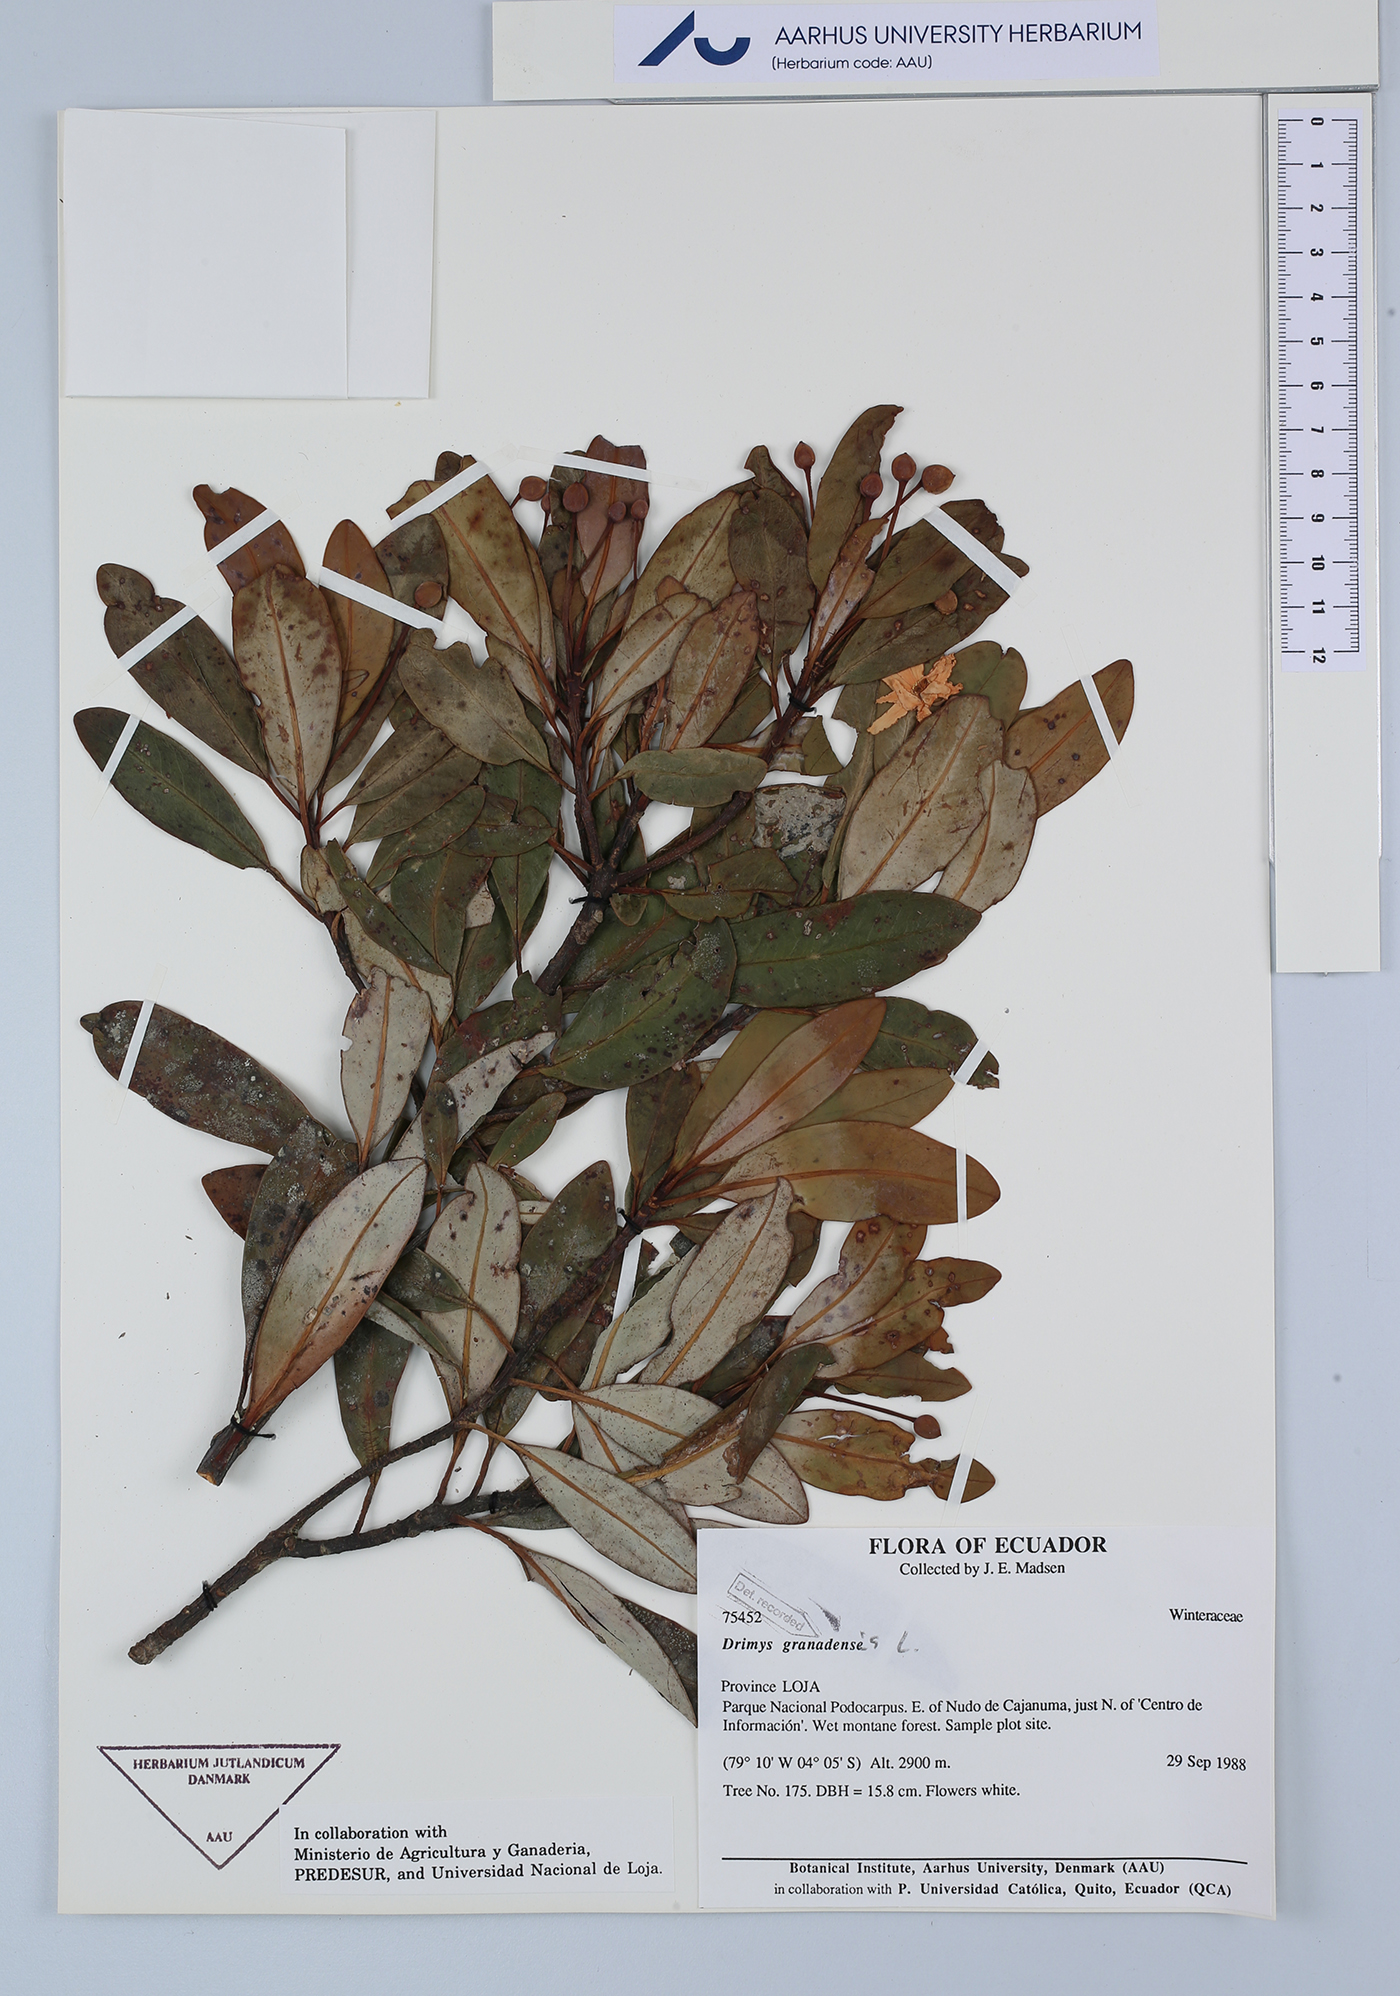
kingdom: Plantae
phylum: Tracheophyta
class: Magnoliopsida
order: Canellales
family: Winteraceae
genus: Drimys
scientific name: Drimys granadensis
